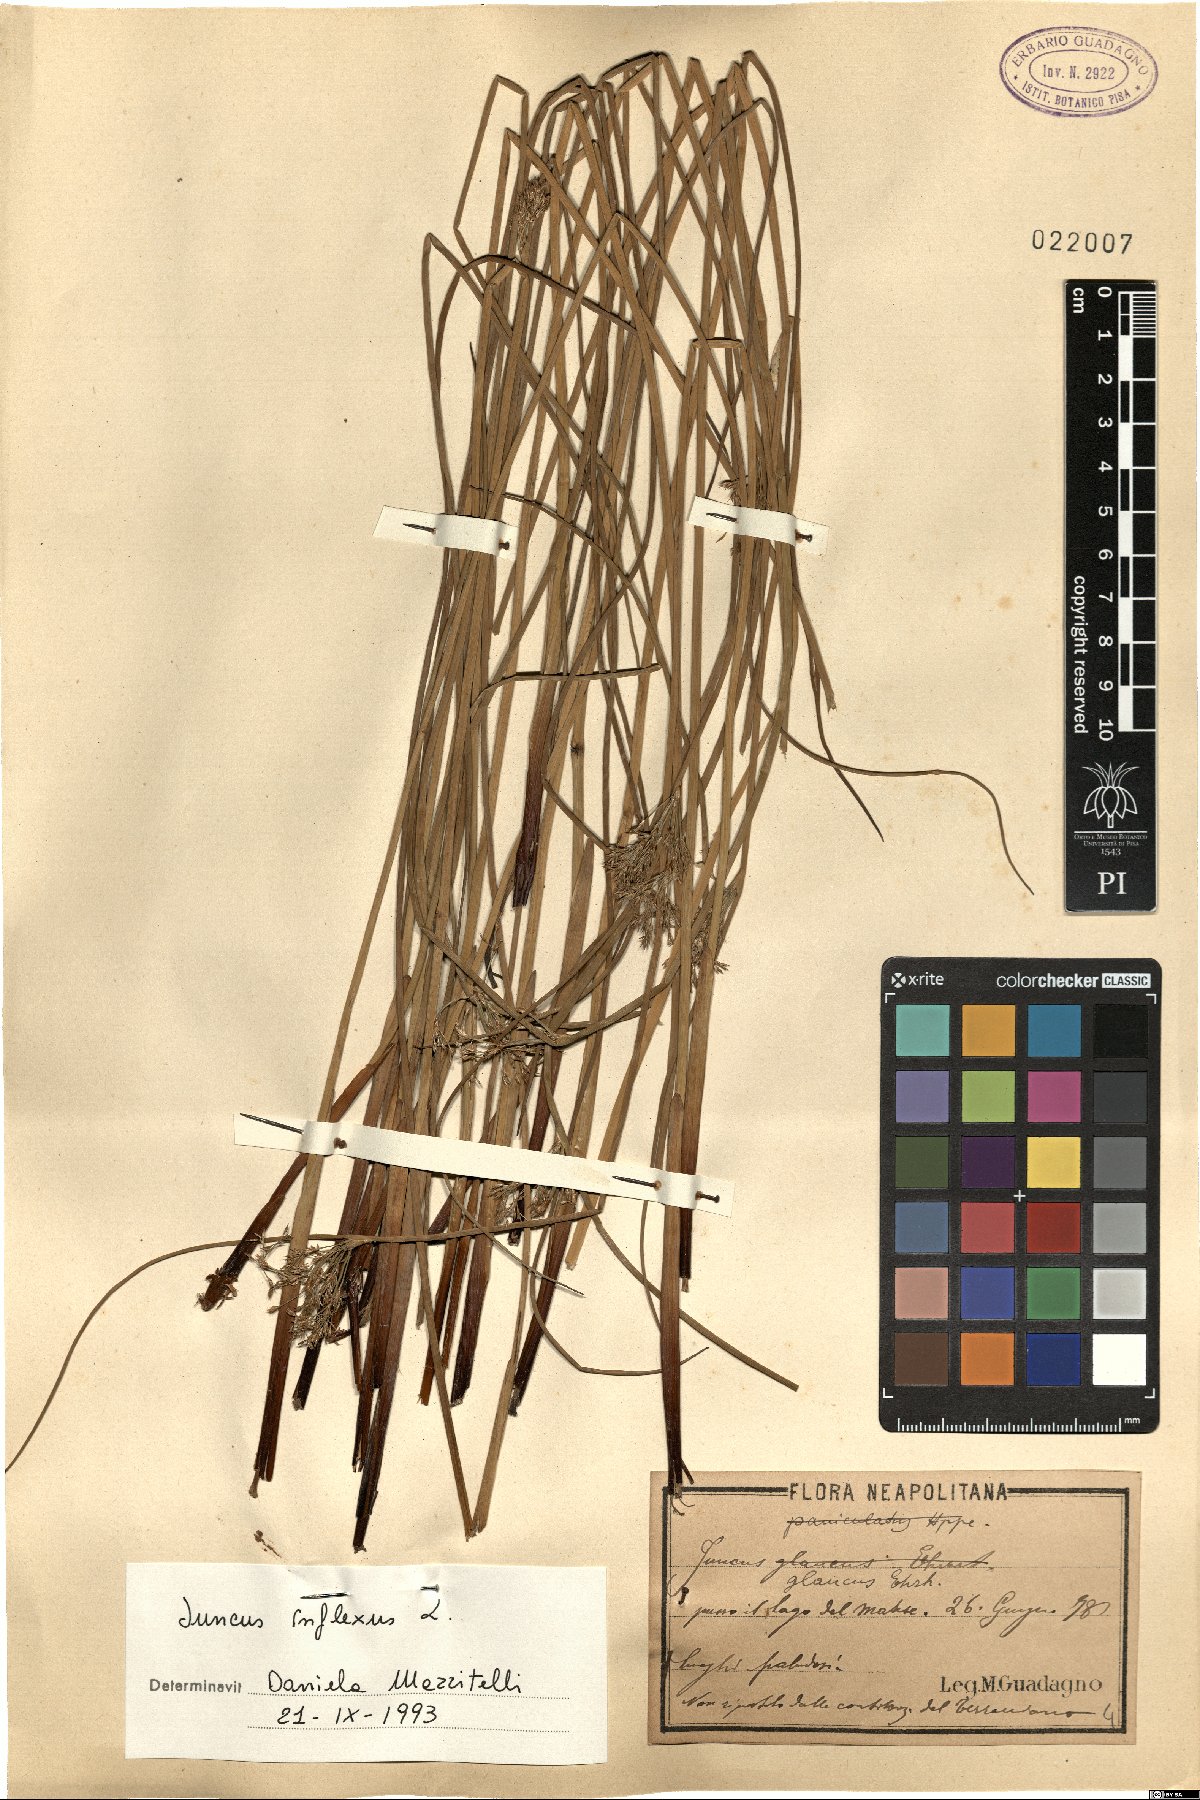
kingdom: Plantae
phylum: Tracheophyta
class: Liliopsida
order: Poales
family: Juncaceae
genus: Juncus
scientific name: Juncus inflexus
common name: Hard rush
